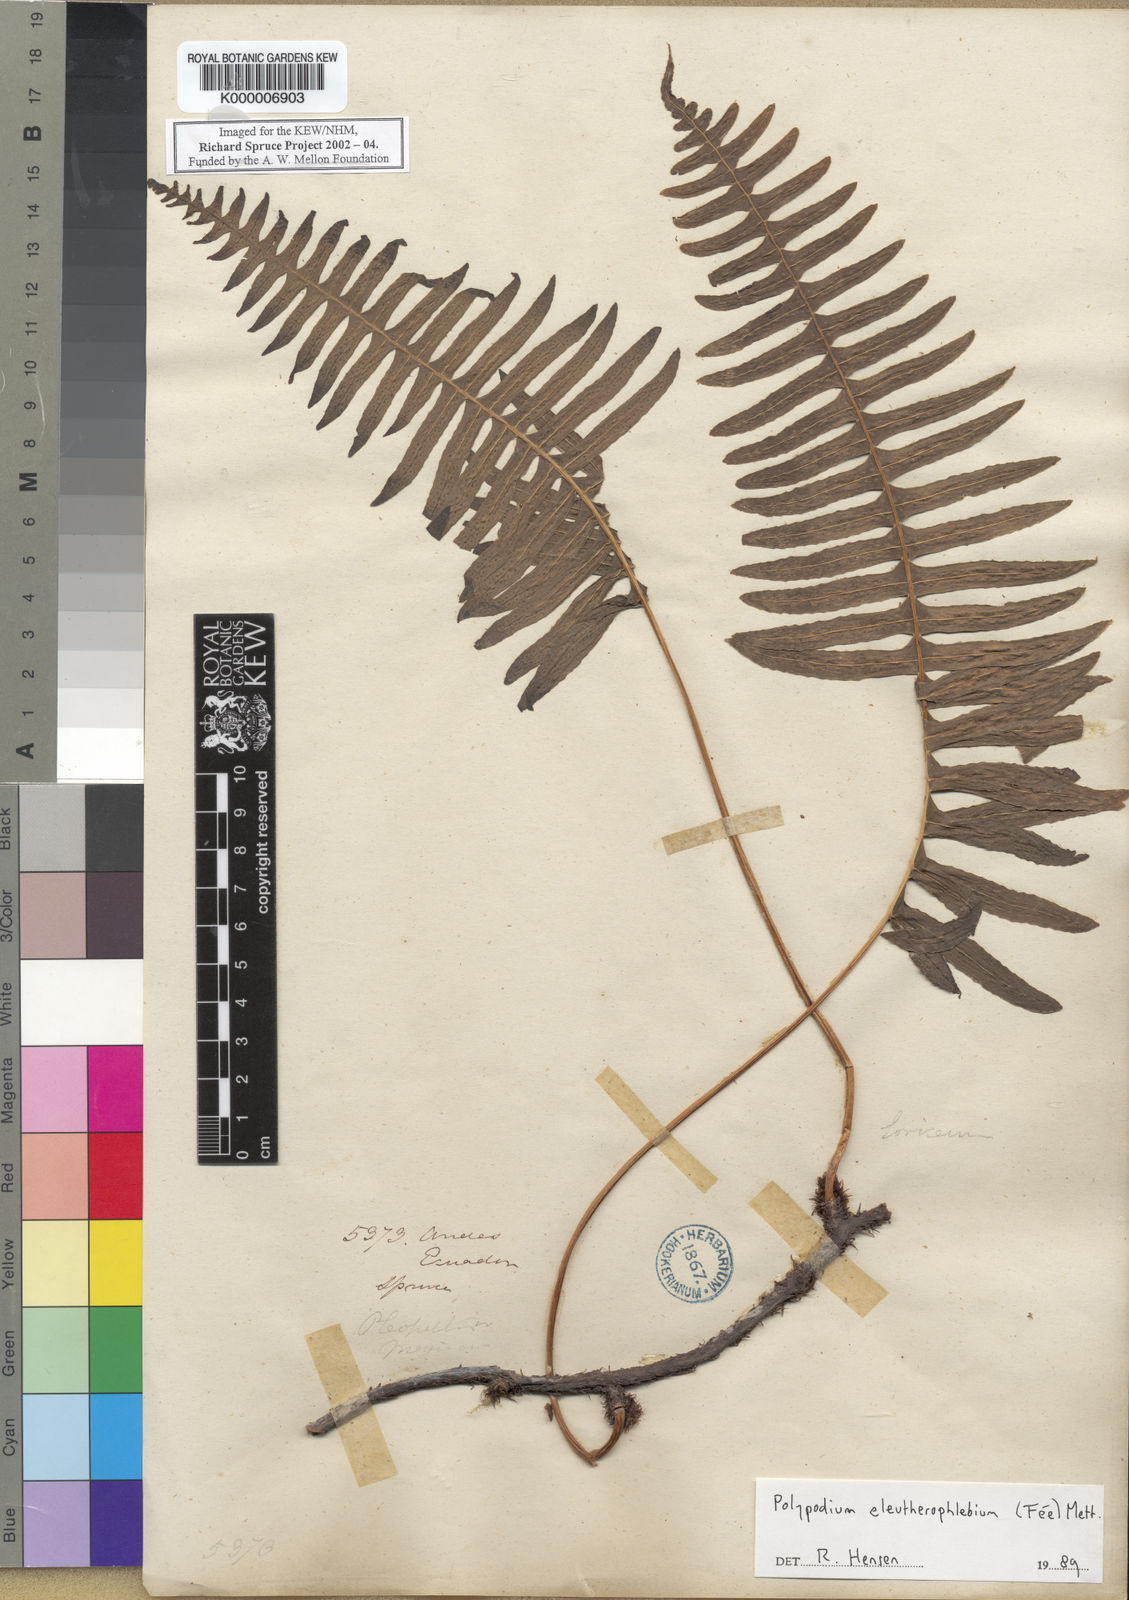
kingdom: Plantae
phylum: Tracheophyta
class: Polypodiopsida
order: Polypodiales
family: Polypodiaceae
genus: Polypodium
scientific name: Polypodium
